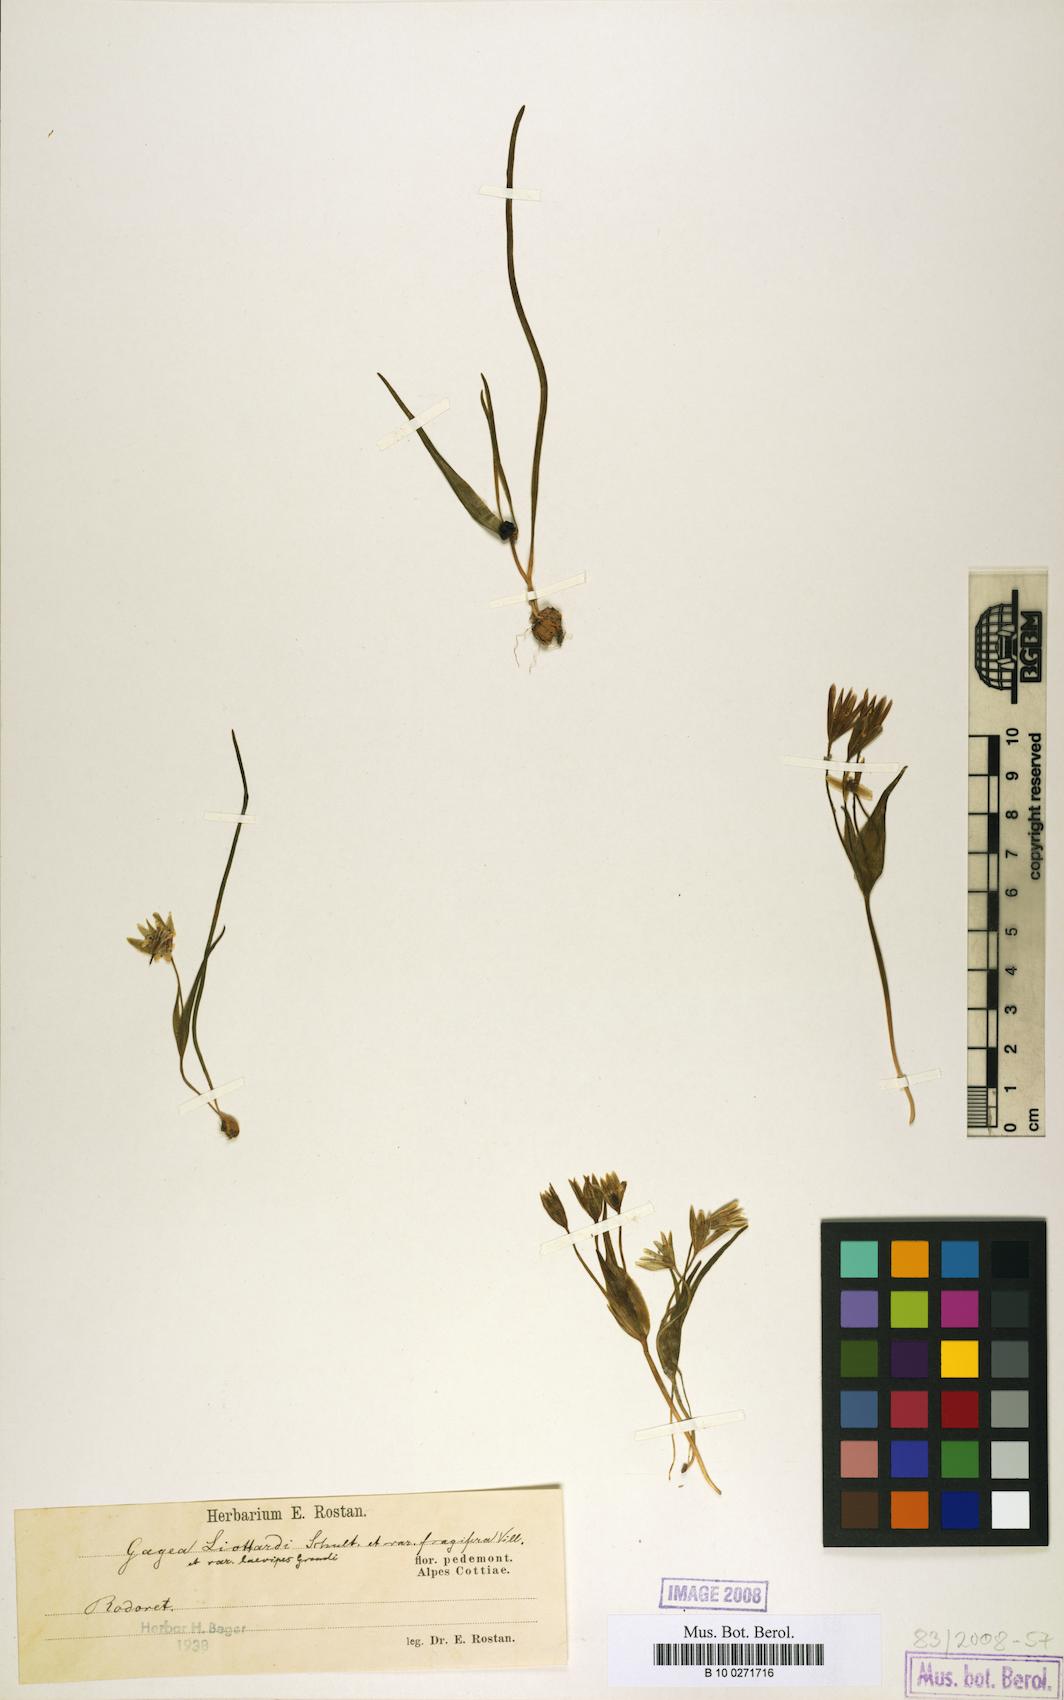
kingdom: Plantae
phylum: Tracheophyta
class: Liliopsida
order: Liliales
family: Liliaceae
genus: Gagea
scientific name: Gagea bohemica
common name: Early star-of-bethlehem
